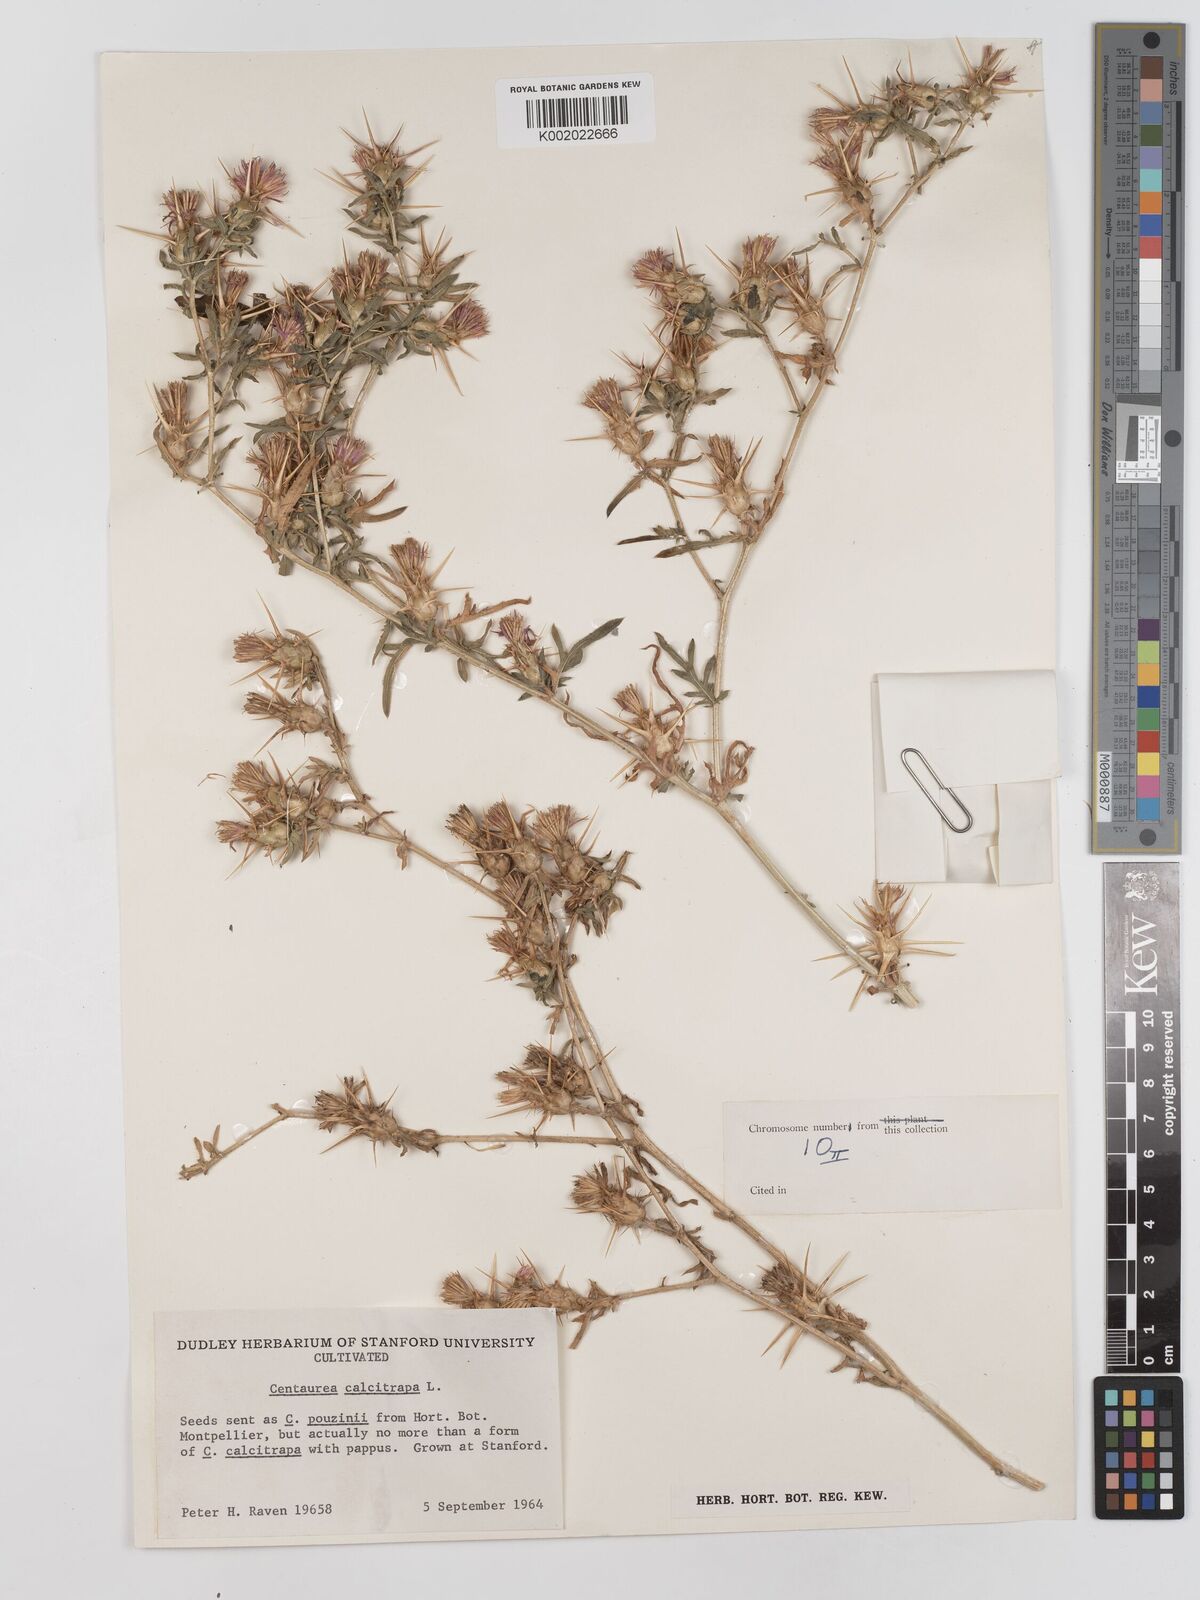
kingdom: Plantae
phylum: Tracheophyta
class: Magnoliopsida
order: Asterales
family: Asteraceae
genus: Centaurea
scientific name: Centaurea calcitrapa
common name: Red star-thistle
